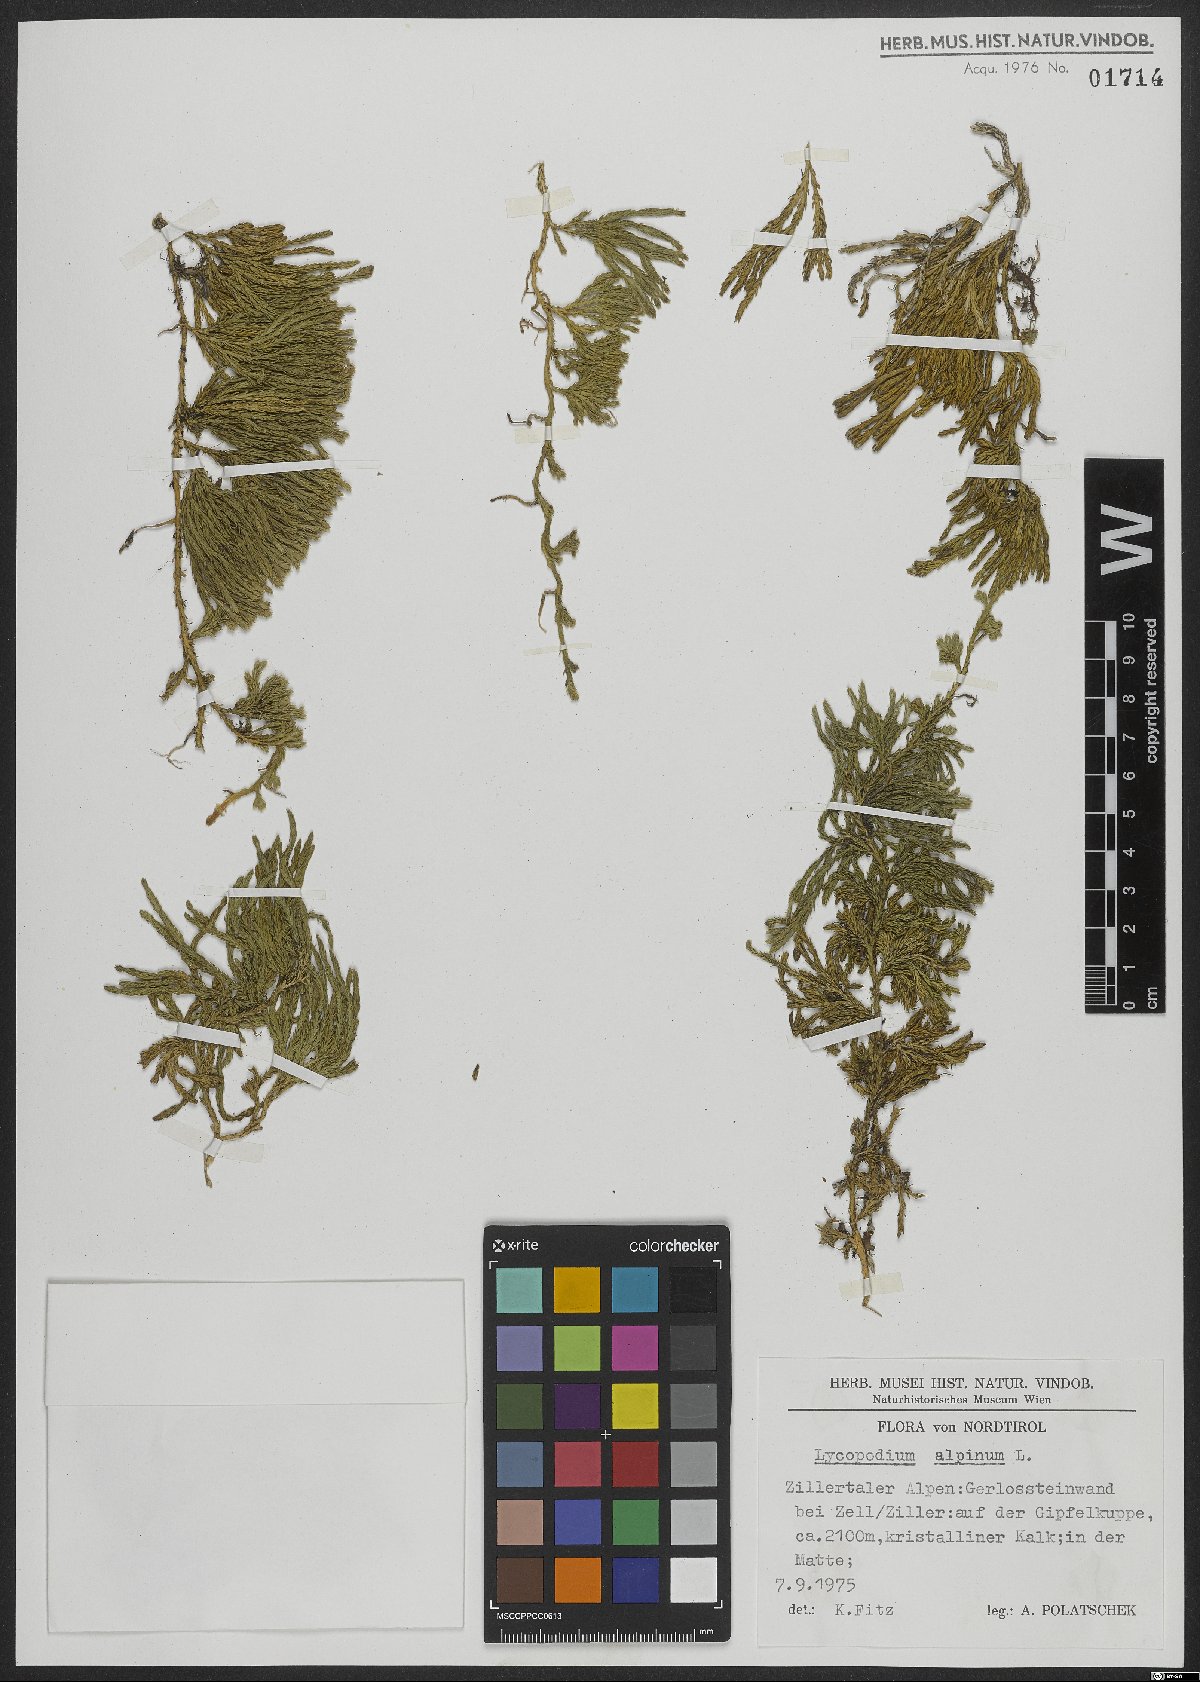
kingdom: Plantae
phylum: Tracheophyta
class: Lycopodiopsida
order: Lycopodiales
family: Lycopodiaceae
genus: Diphasiastrum
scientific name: Diphasiastrum alpinum
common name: Alpine clubmoss
